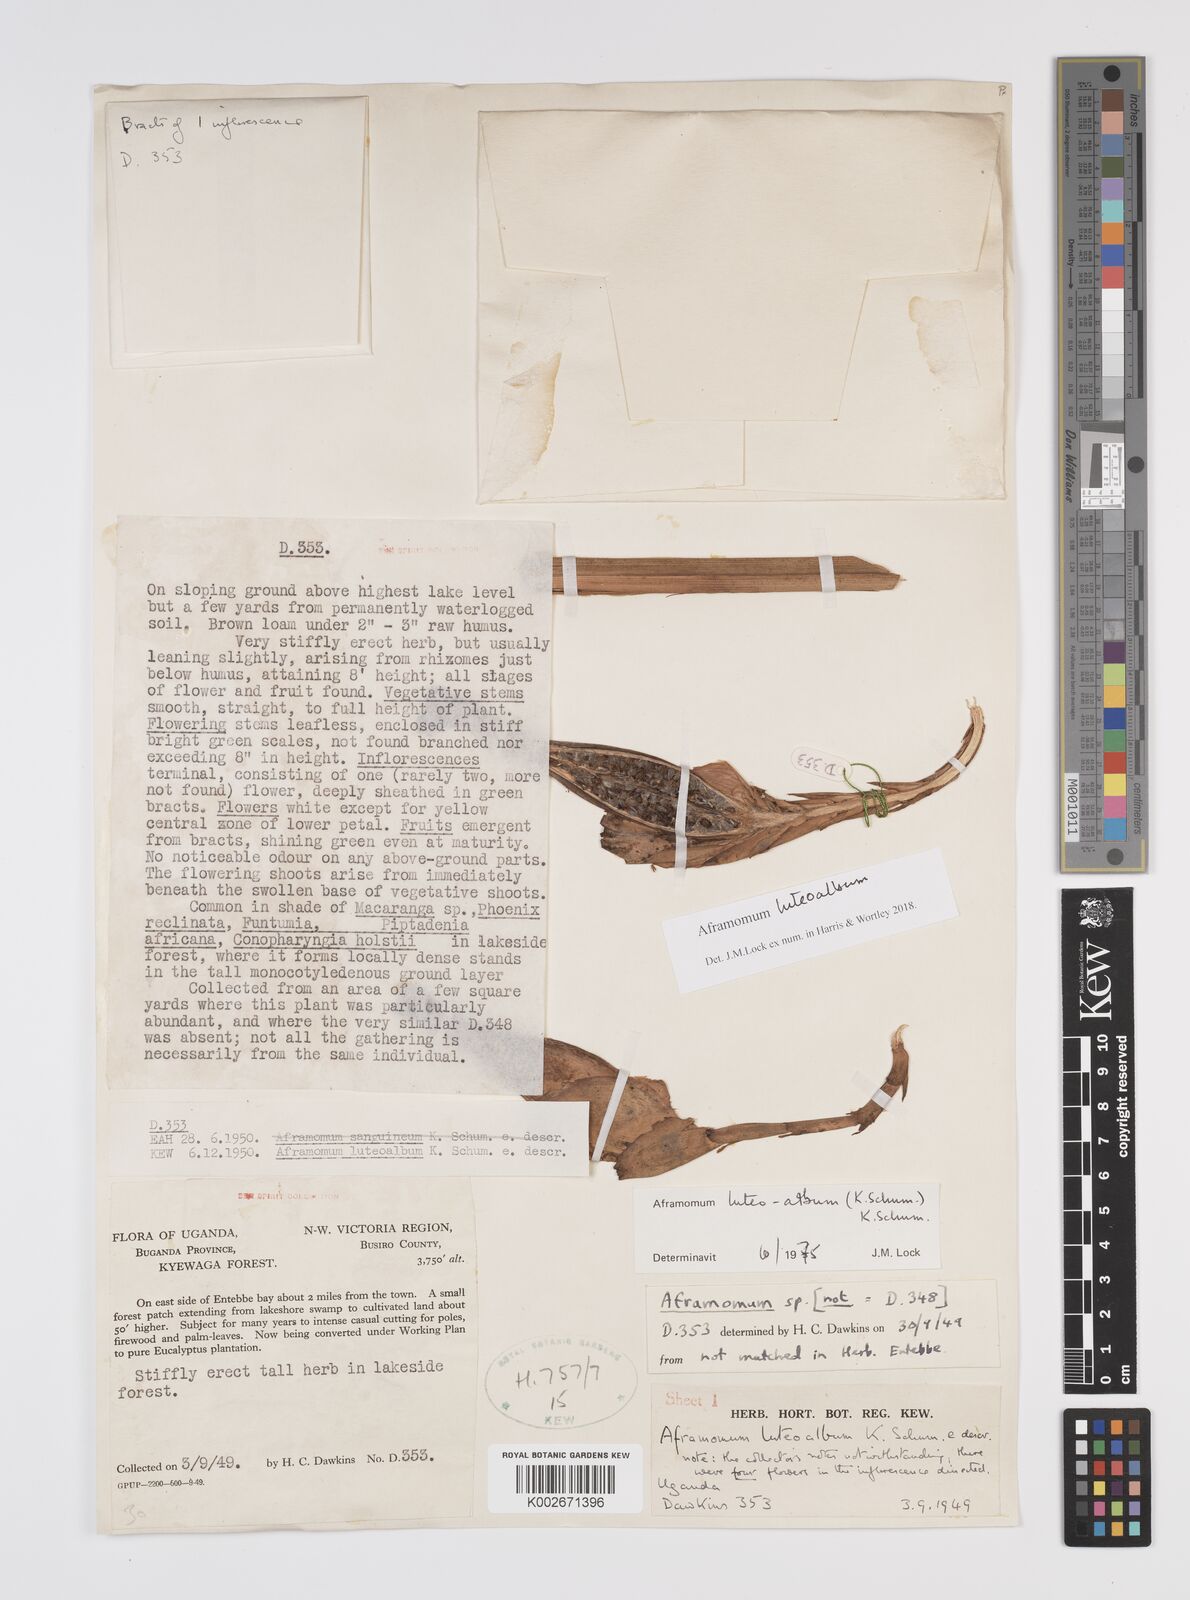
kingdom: Plantae
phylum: Tracheophyta
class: Liliopsida
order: Zingiberales
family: Zingiberaceae
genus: Aframomum
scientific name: Aframomum luteoalbum
